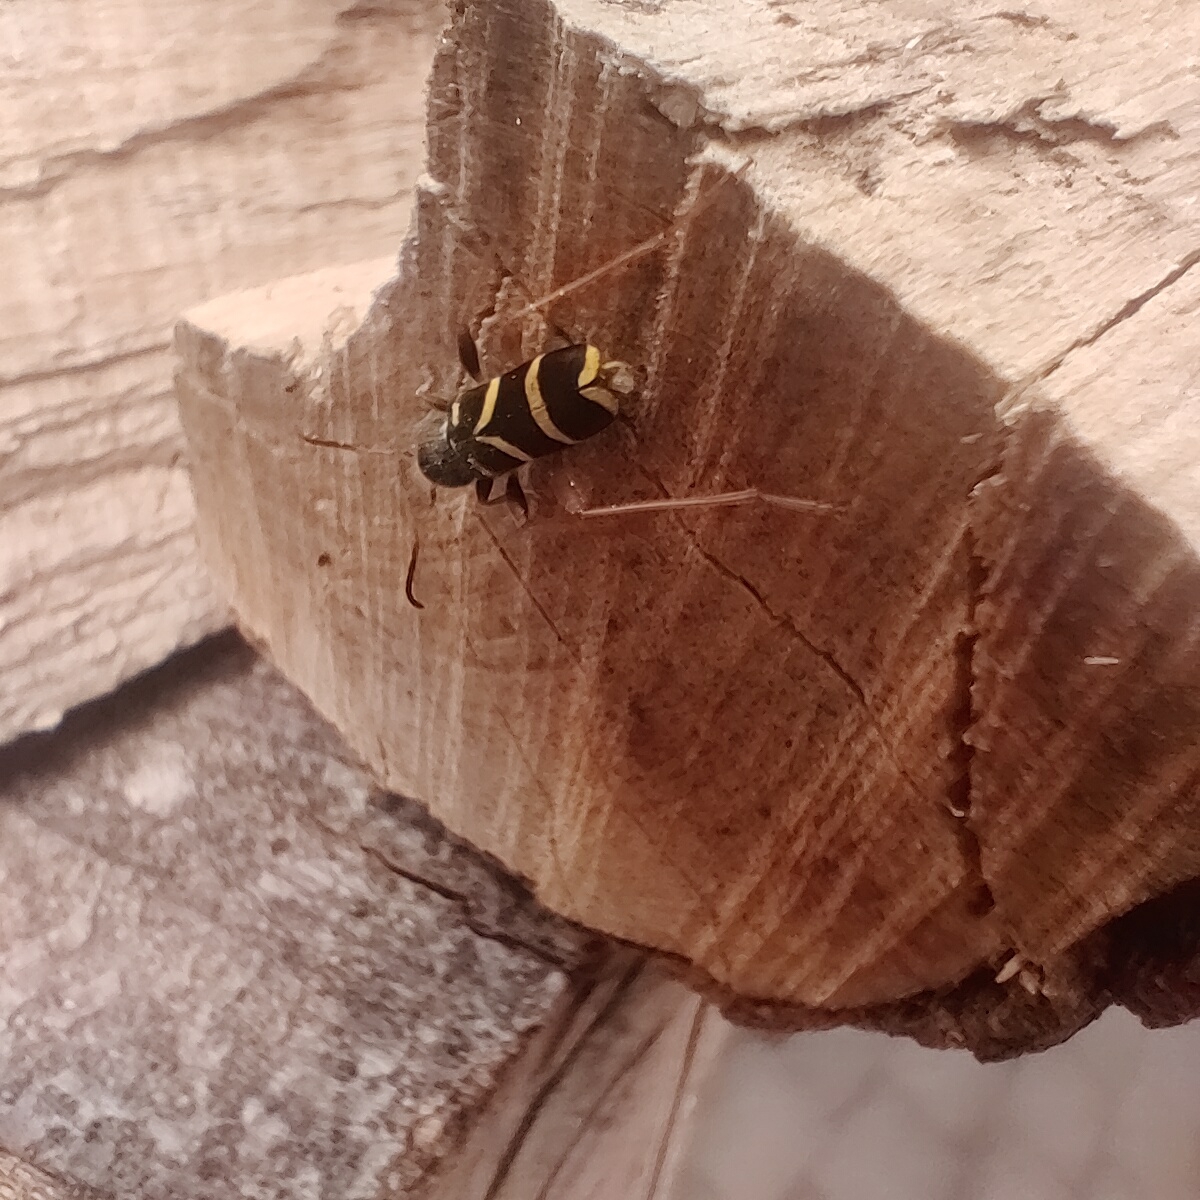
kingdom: Animalia
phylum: Arthropoda
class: Insecta
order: Coleoptera
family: Cerambycidae
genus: Clytus
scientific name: Clytus arietis
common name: Lille hvepsebuk
